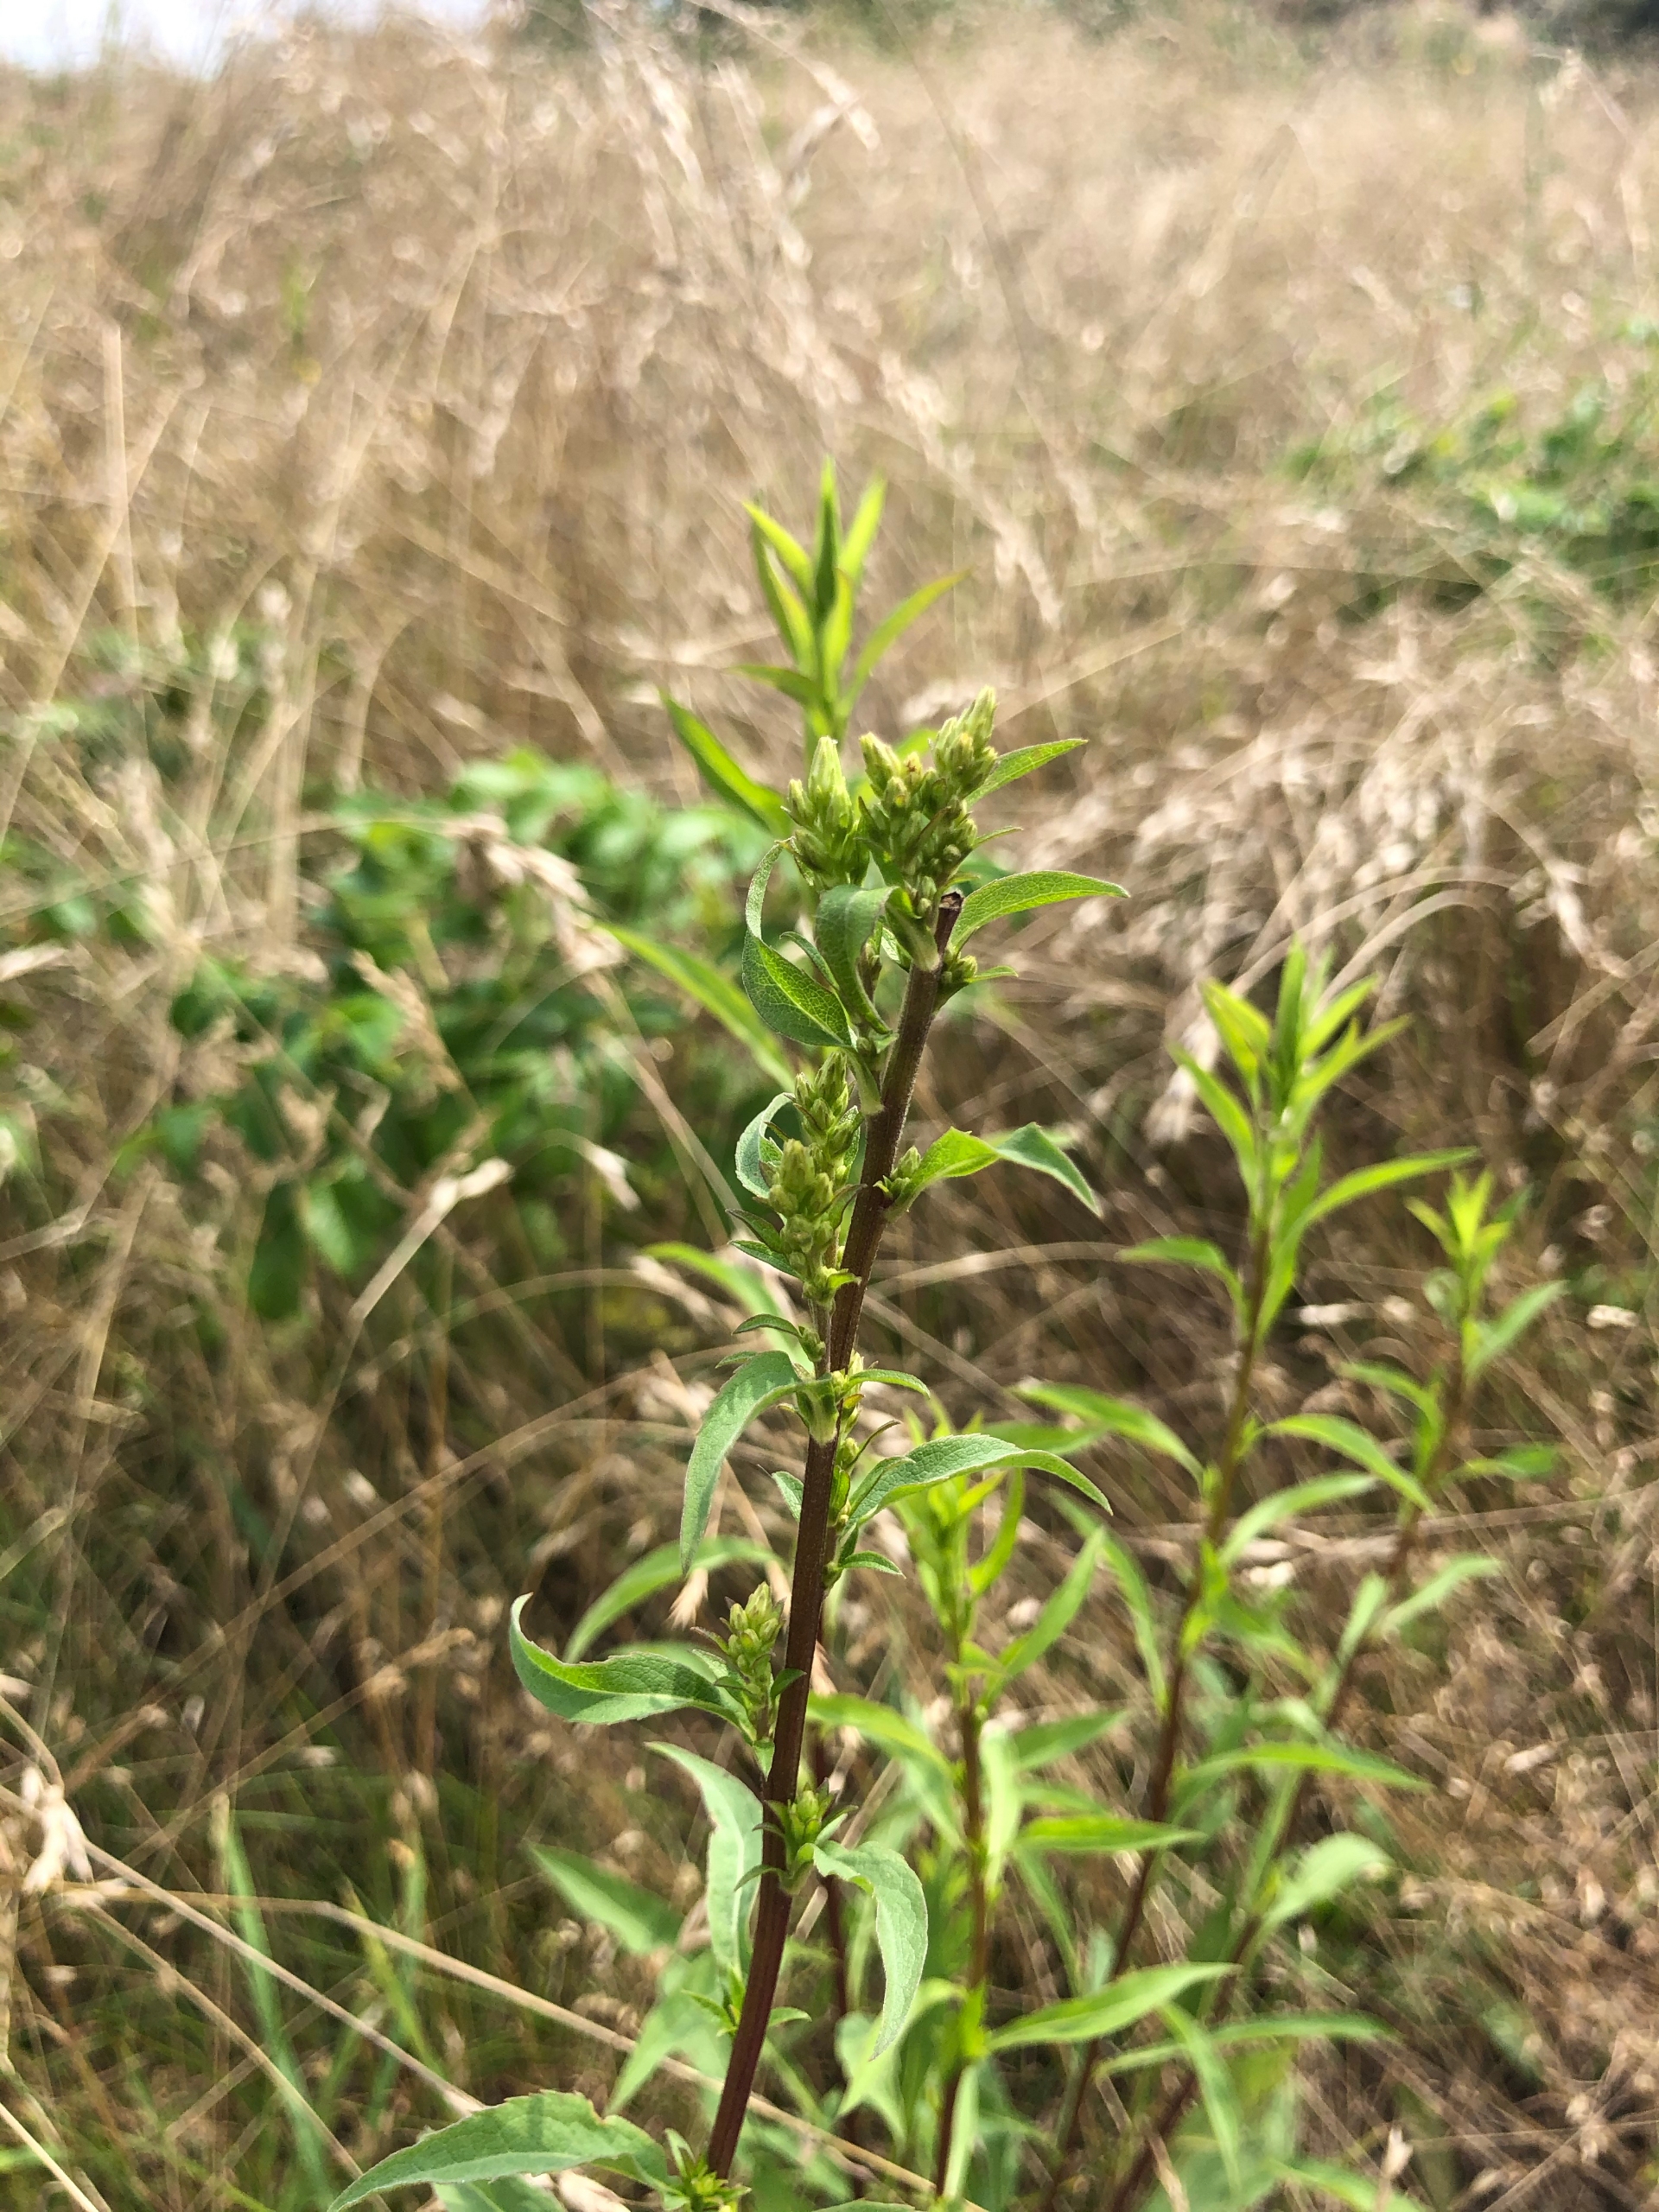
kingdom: Plantae
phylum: Tracheophyta
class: Magnoliopsida
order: Asterales
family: Asteraceae
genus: Solidago
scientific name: Solidago virgaurea
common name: Almindelig gyldenris
